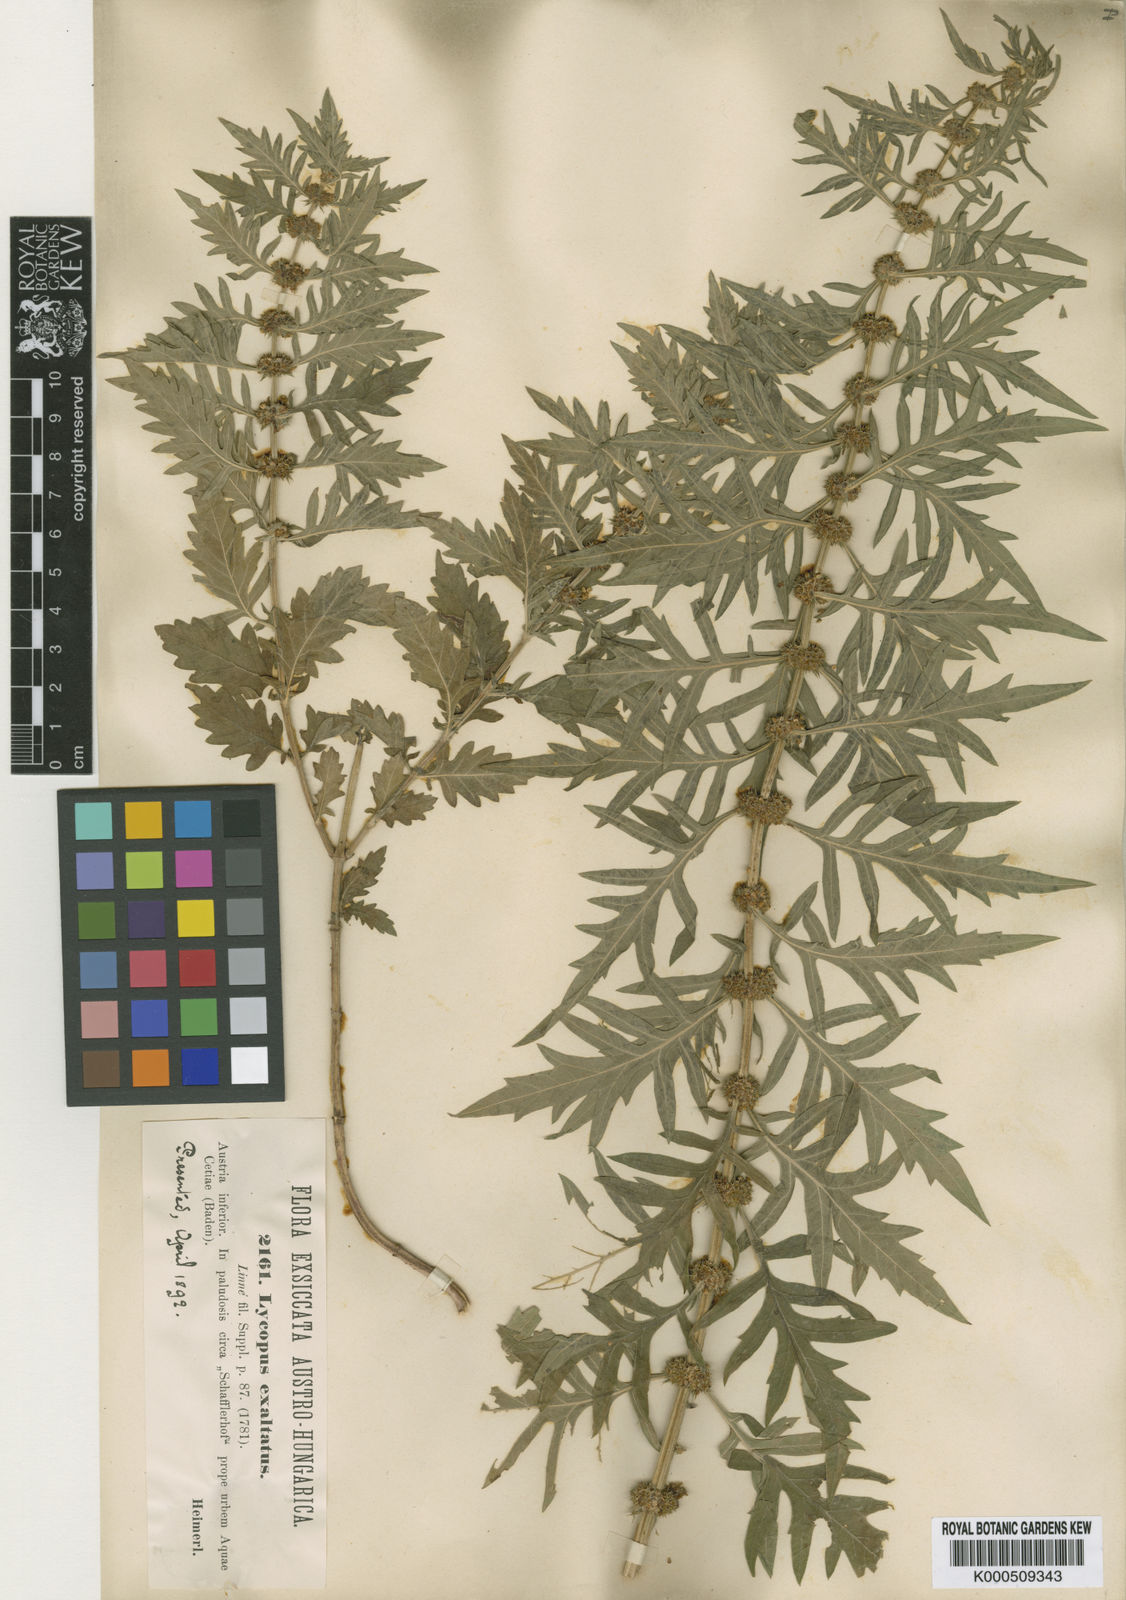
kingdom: Plantae
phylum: Tracheophyta
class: Magnoliopsida
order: Lamiales
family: Lamiaceae
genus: Lycopus
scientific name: Lycopus exaltatus
